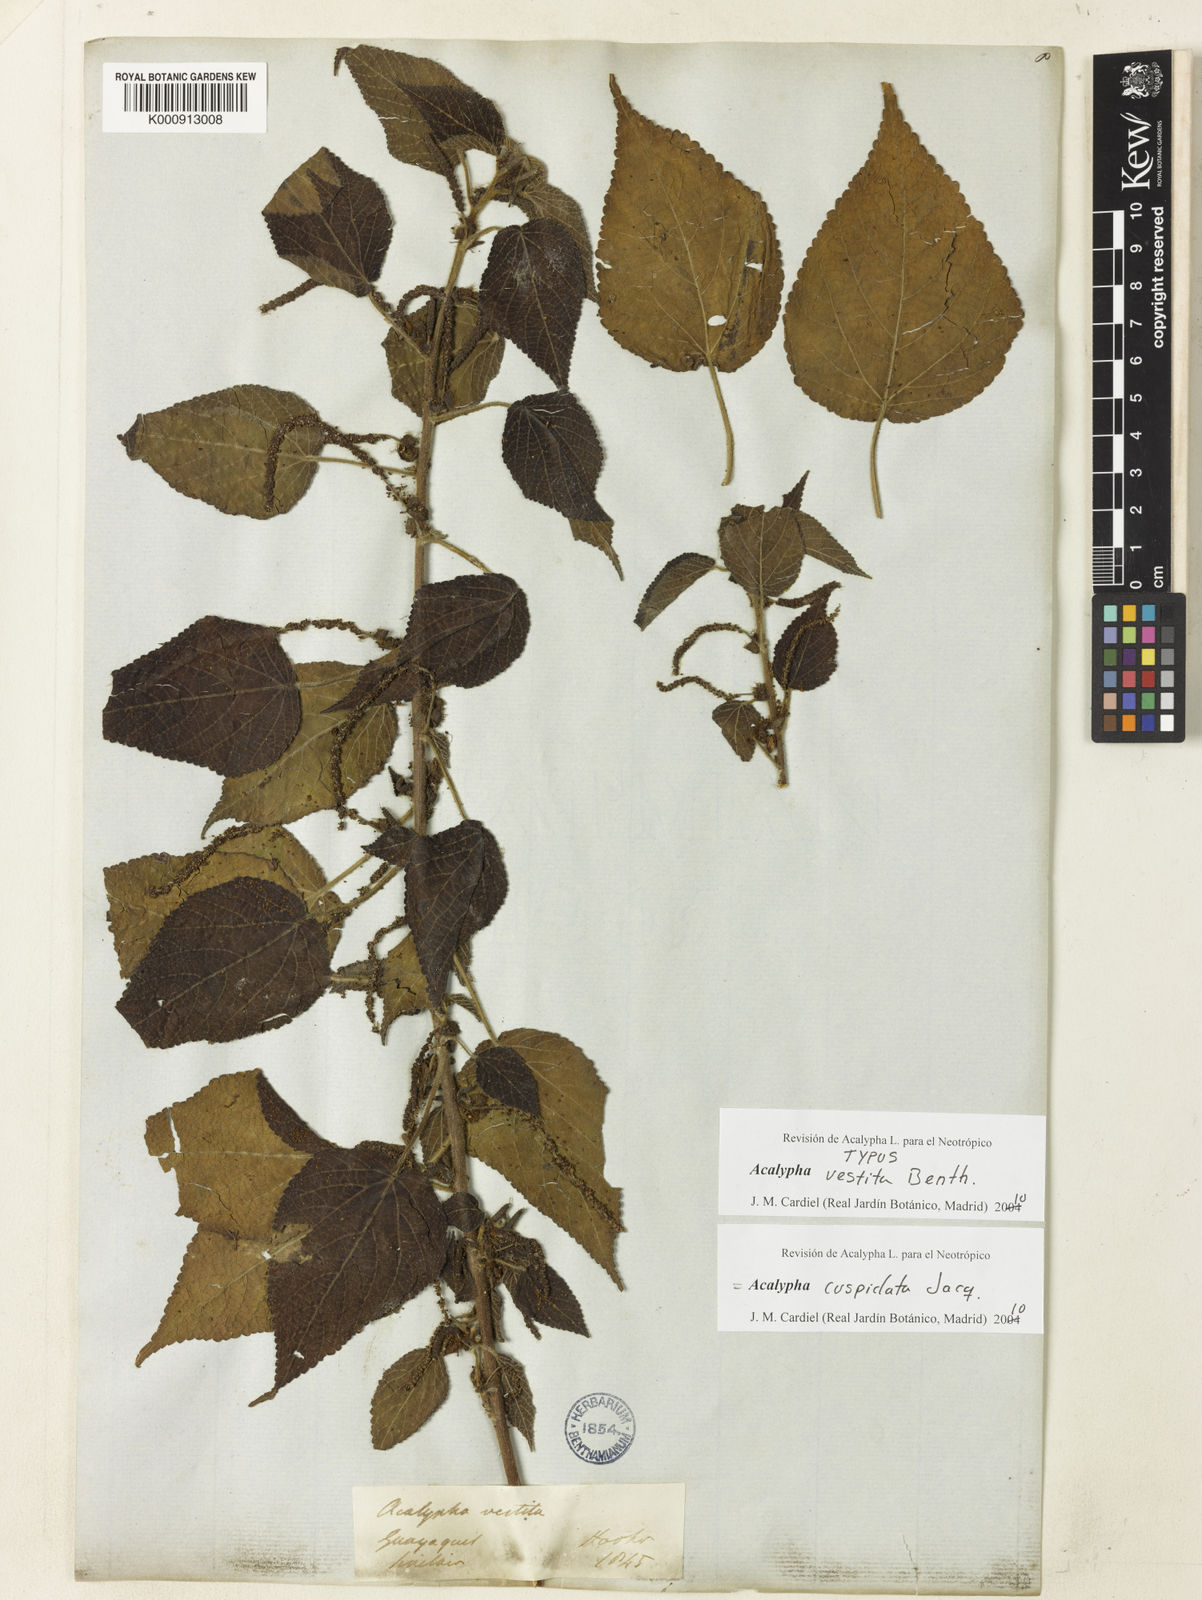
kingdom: Plantae
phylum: Tracheophyta
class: Magnoliopsida
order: Malpighiales
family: Euphorbiaceae
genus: Acalypha
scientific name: Acalypha cuspidata
